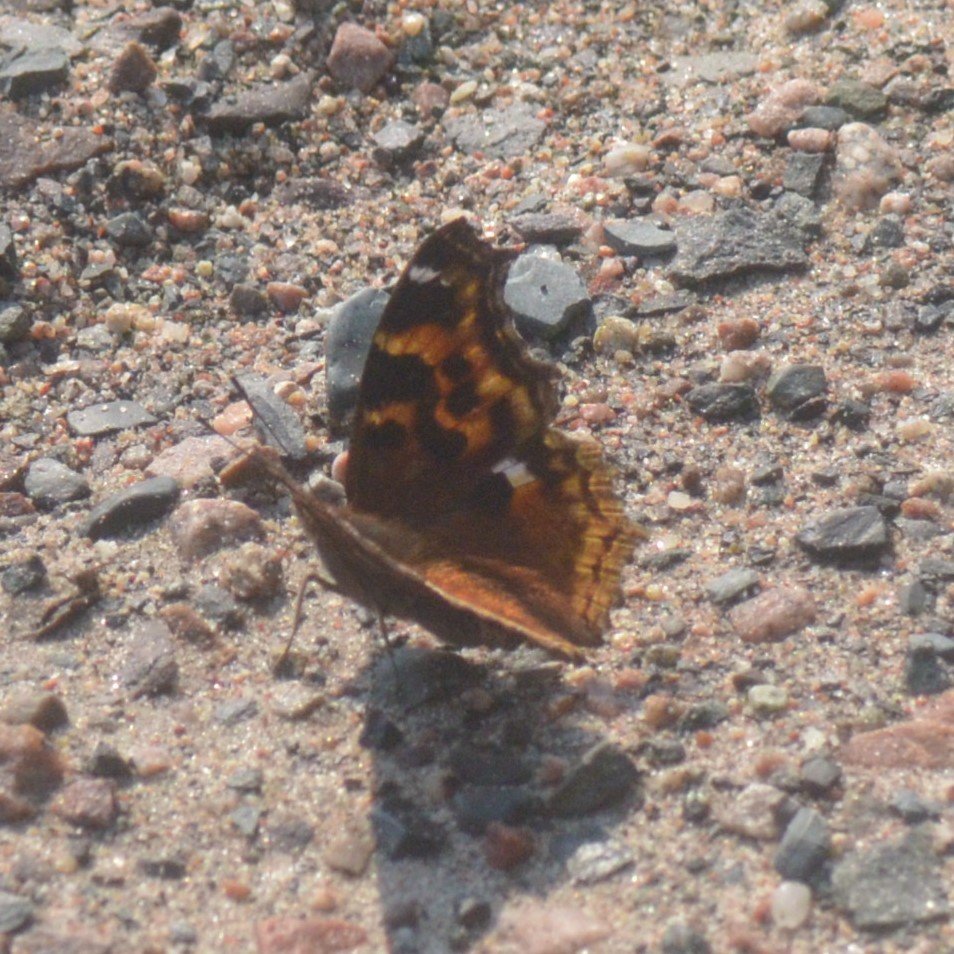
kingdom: Animalia
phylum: Arthropoda
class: Insecta
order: Lepidoptera
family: Nymphalidae
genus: Polygonia
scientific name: Polygonia vaualbum
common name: Compton Tortoiseshell
